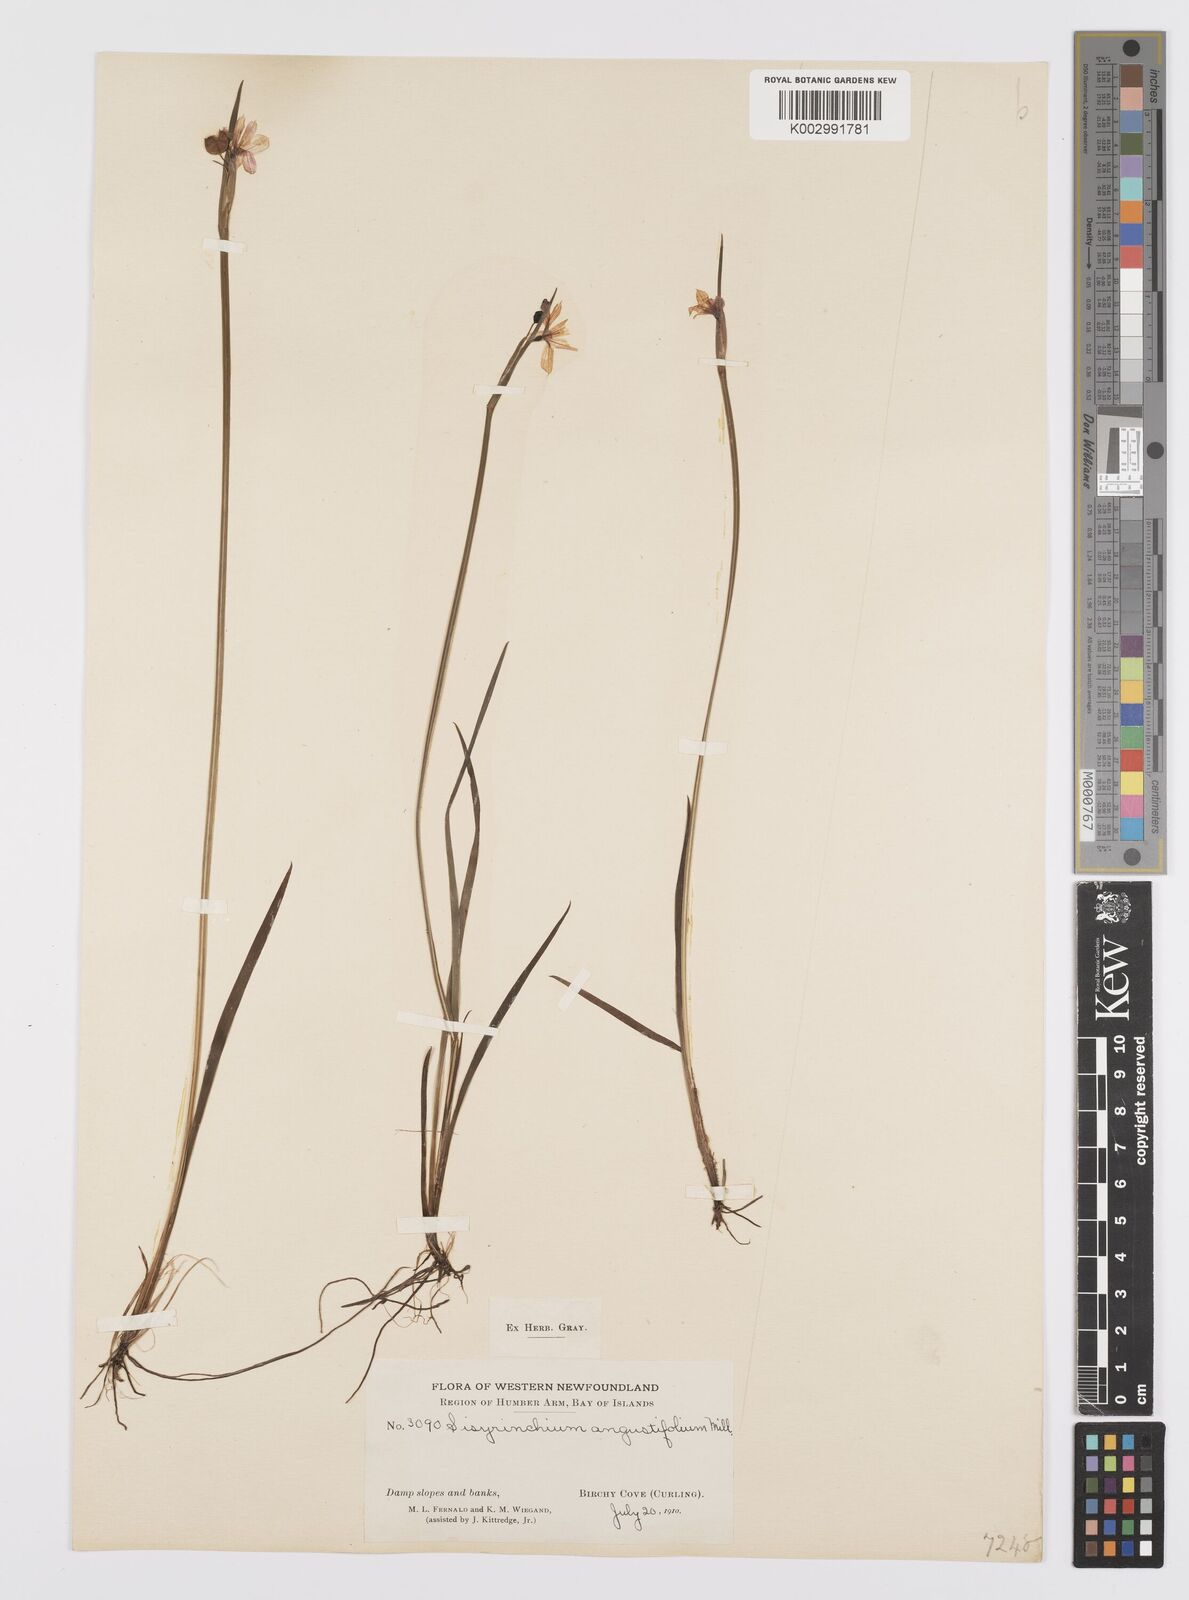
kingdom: Plantae
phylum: Tracheophyta
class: Liliopsida
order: Asparagales
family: Iridaceae
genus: Sisyrinchium
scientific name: Sisyrinchium bermudiana
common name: Blue-eyed-grass
